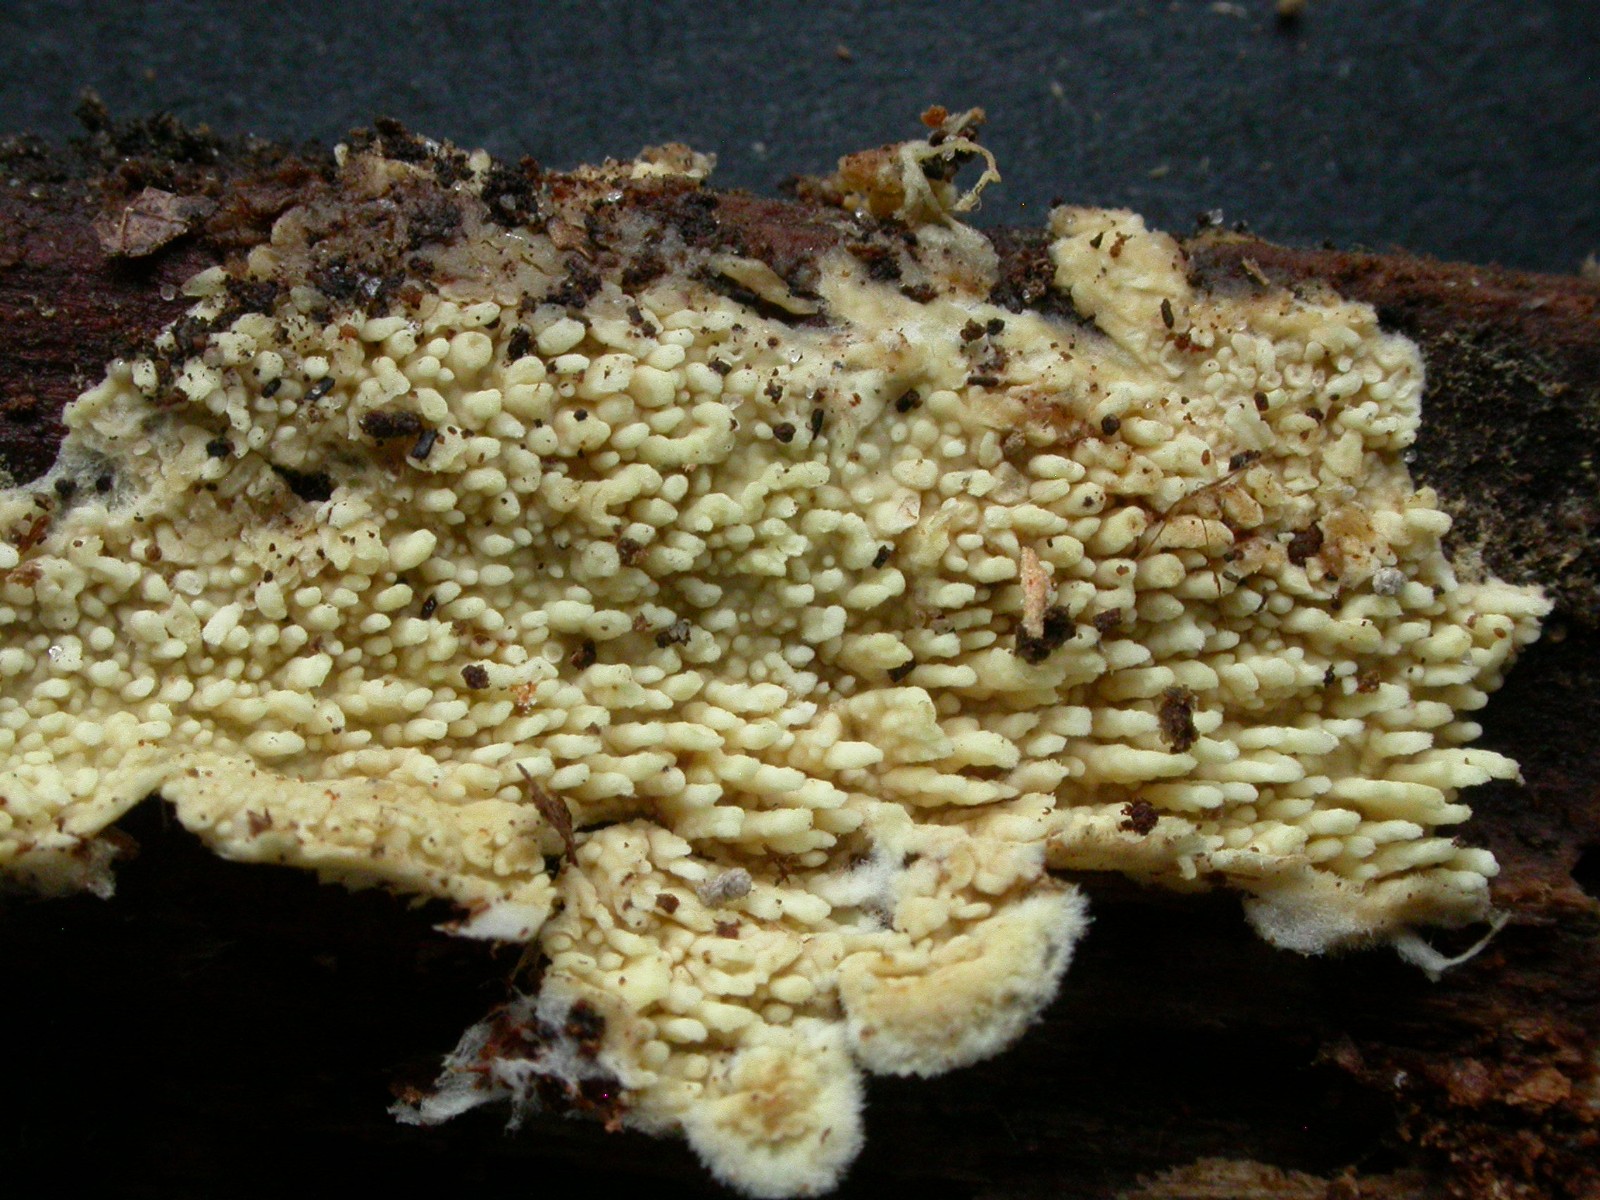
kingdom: Fungi
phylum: Basidiomycota
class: Agaricomycetes
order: Agaricales
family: Stephanosporaceae
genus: Cristinia
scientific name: Cristinia eichleri
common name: tandet citrushinde
